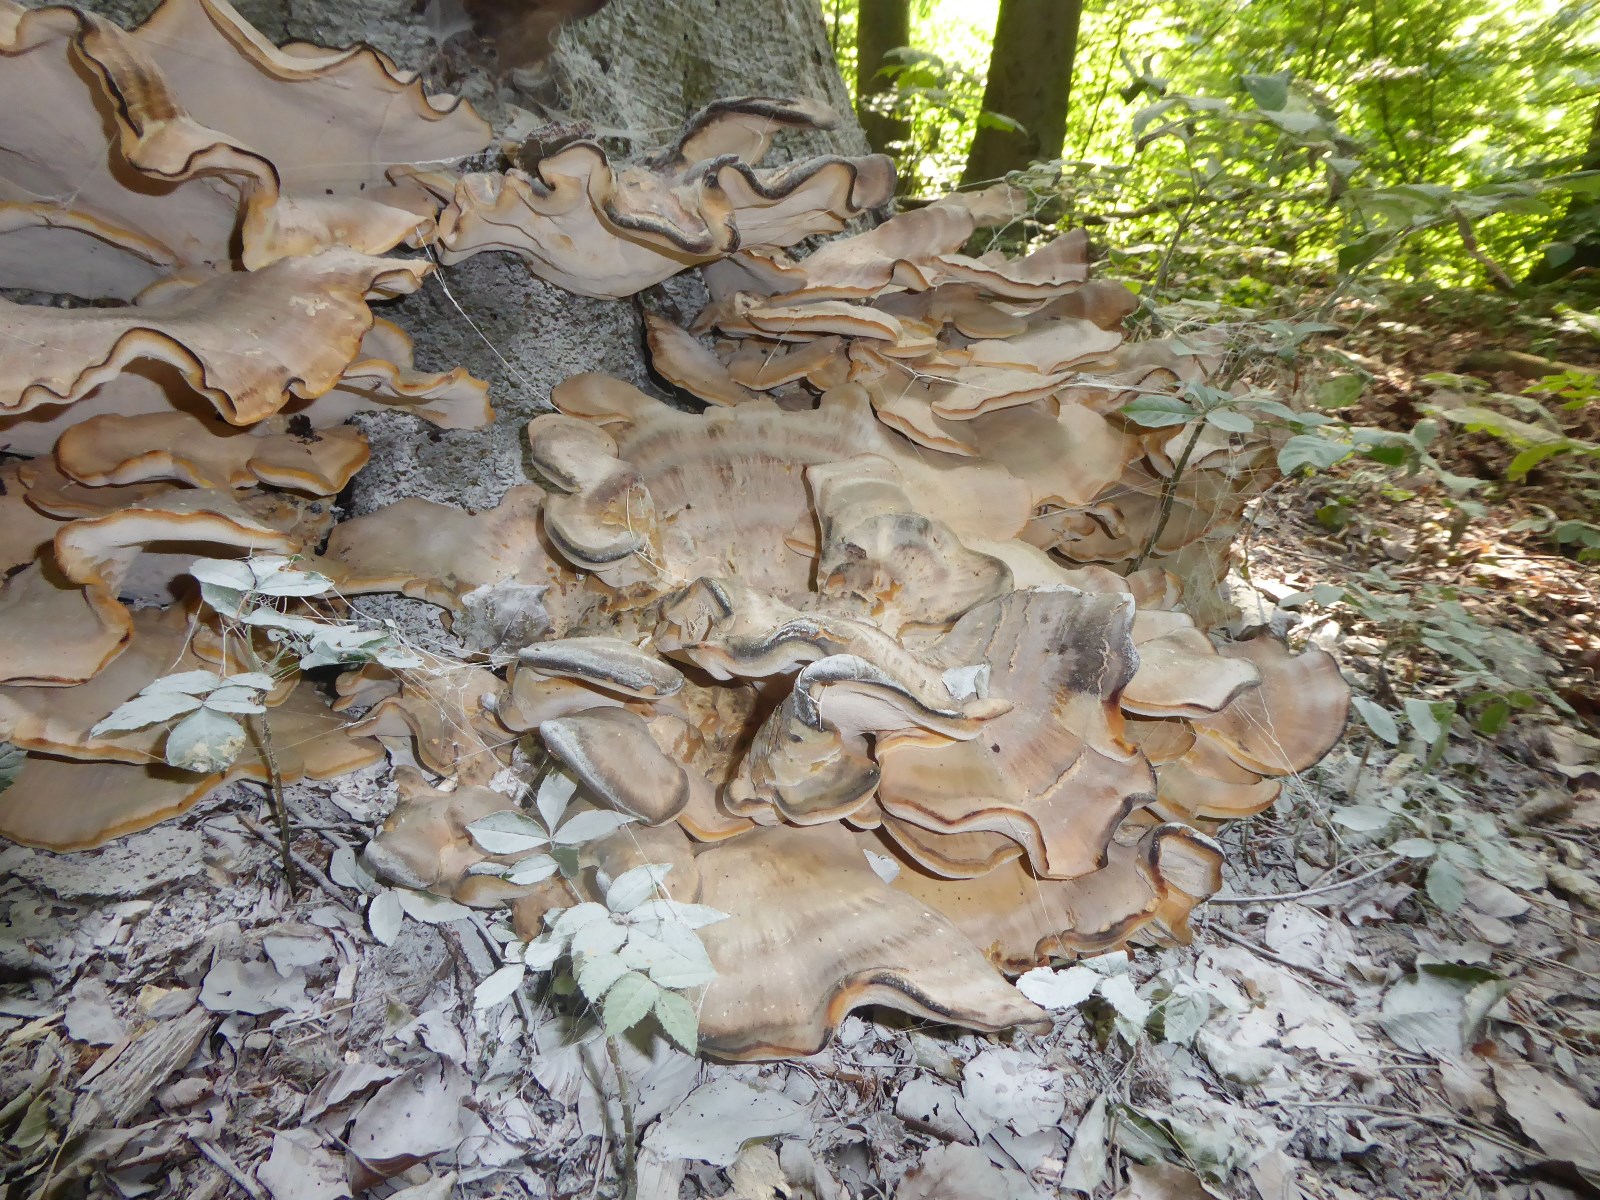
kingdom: Fungi
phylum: Basidiomycota
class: Agaricomycetes
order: Polyporales
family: Meripilaceae
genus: Meripilus
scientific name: Meripilus giganteus
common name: kæmpeporesvamp
